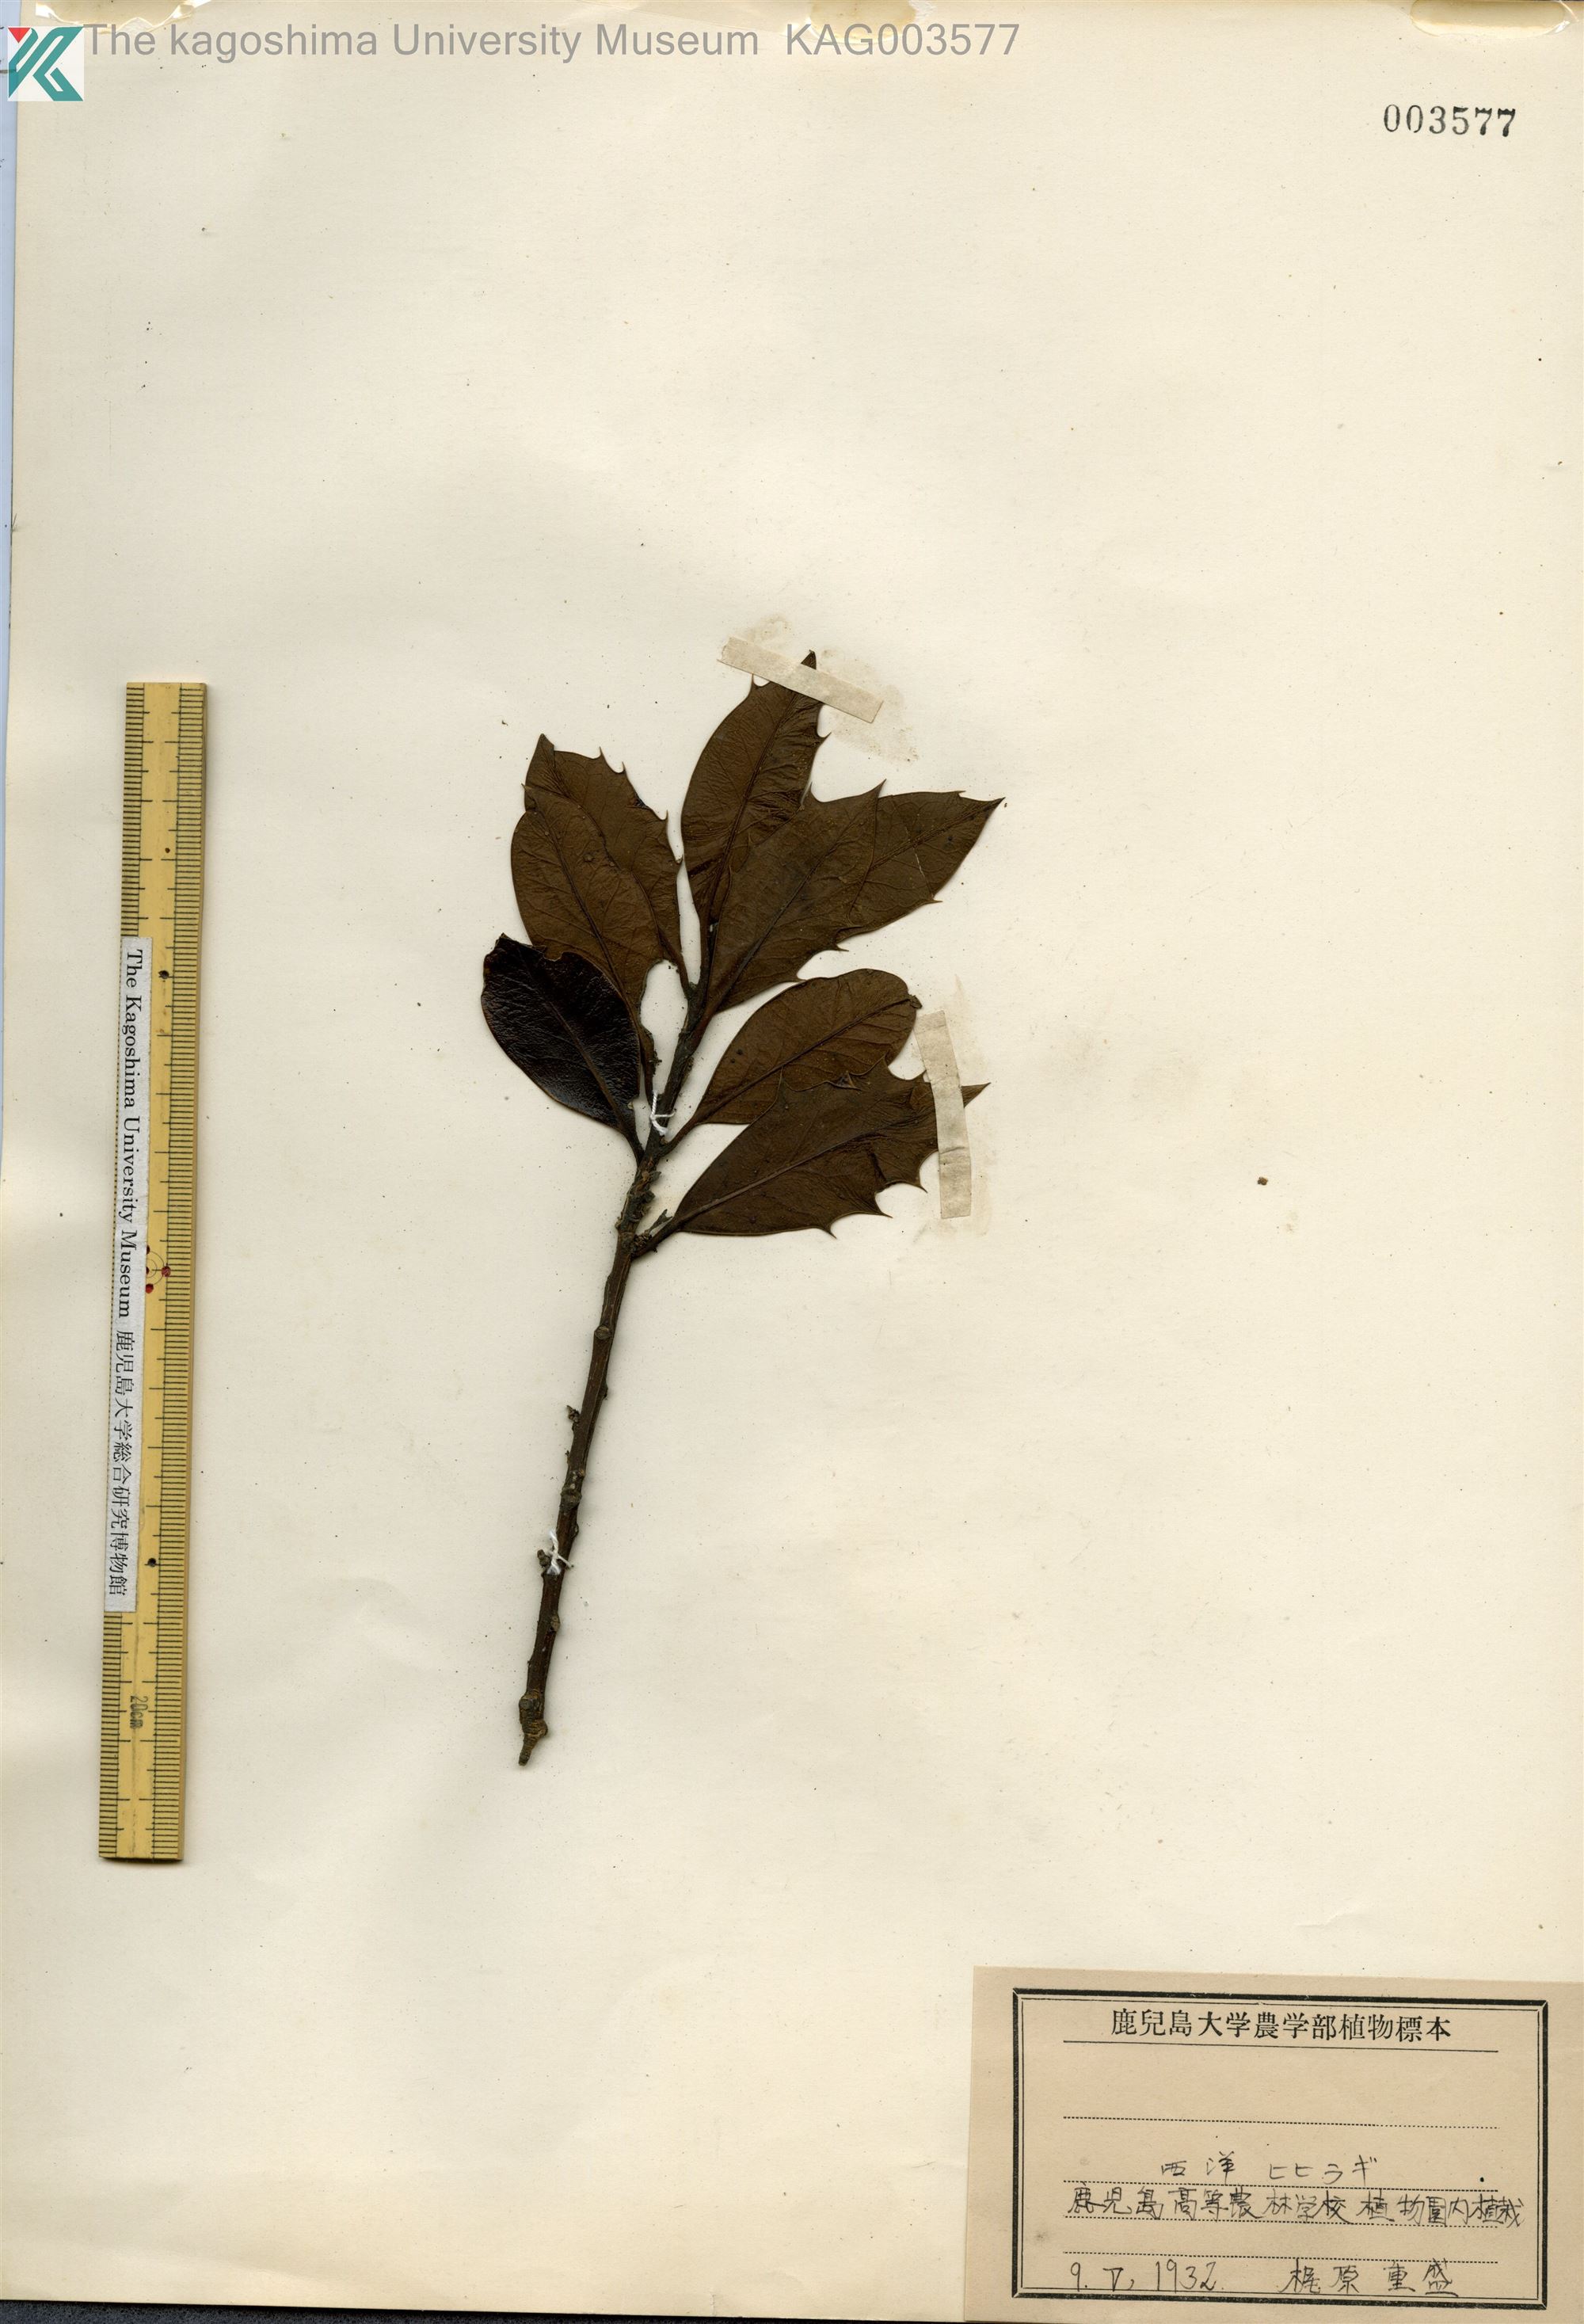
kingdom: Plantae
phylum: Tracheophyta
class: Magnoliopsida
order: Aquifoliales
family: Aquifoliaceae
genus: Ilex
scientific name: Ilex aquifolium
